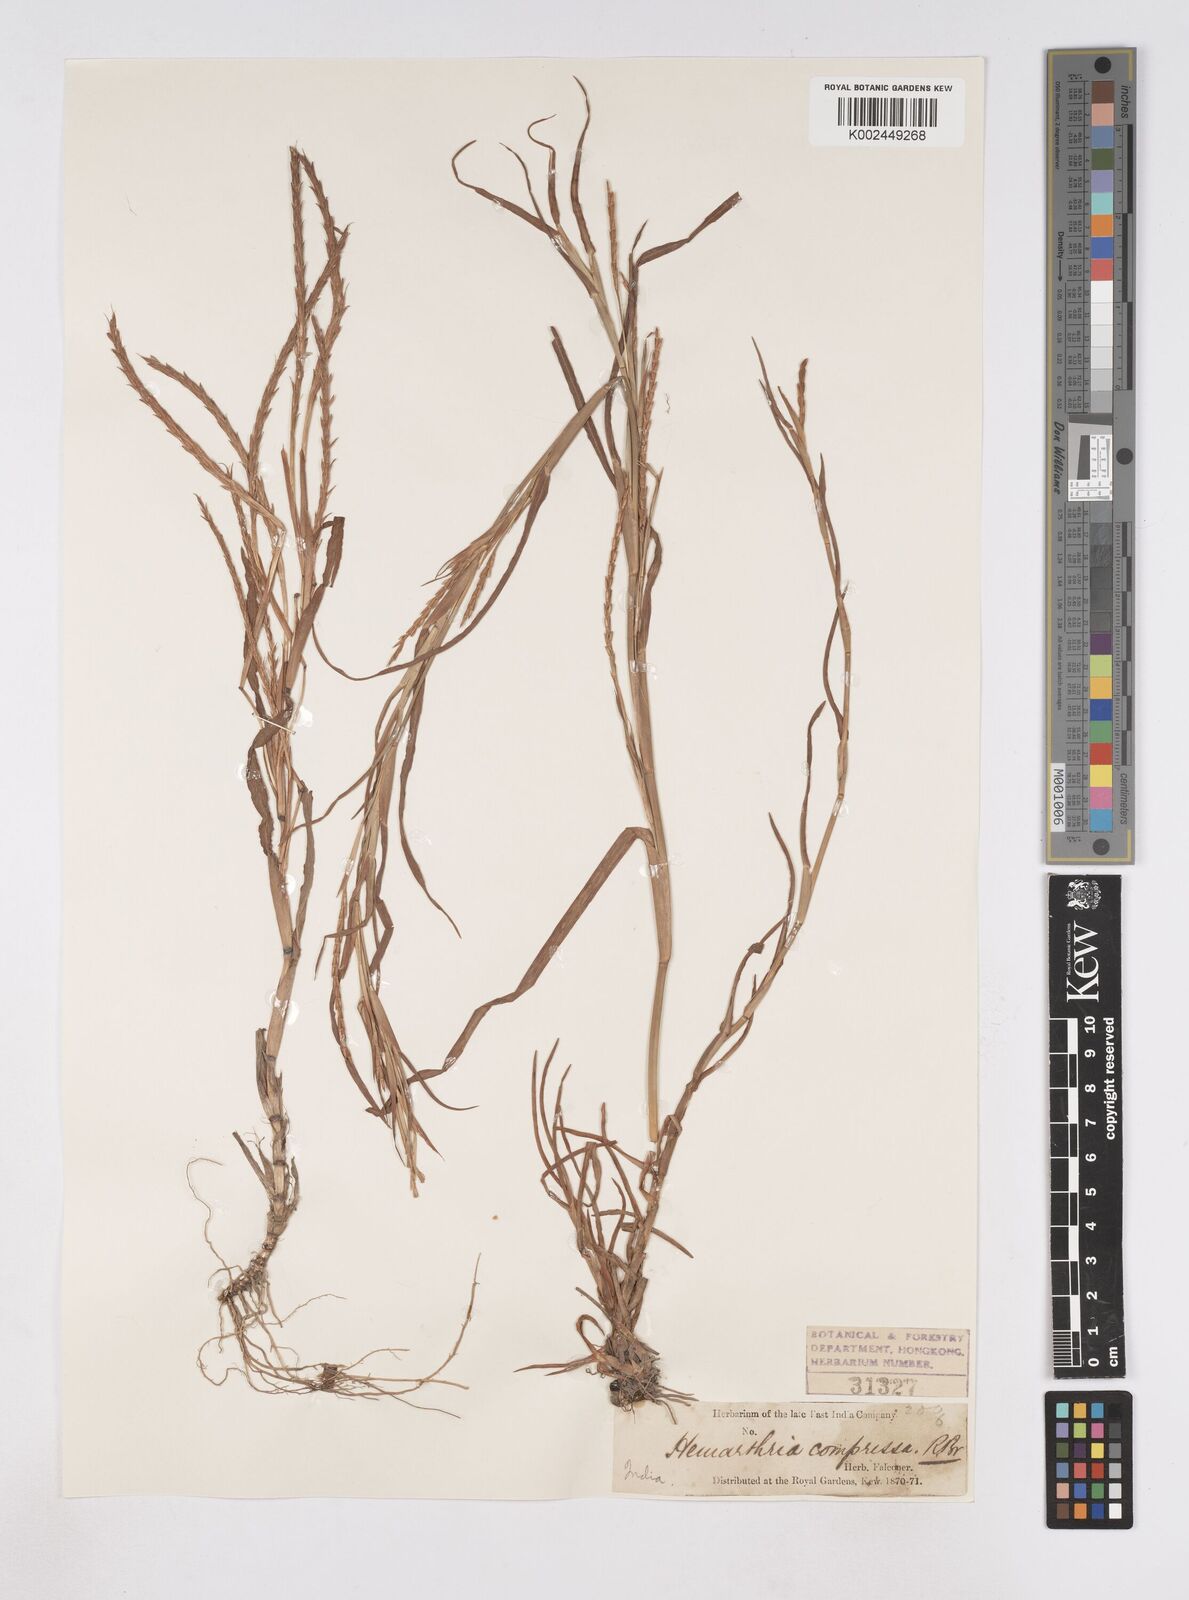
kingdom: Plantae
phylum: Tracheophyta
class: Liliopsida
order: Poales
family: Poaceae
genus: Hemarthria
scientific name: Hemarthria compressa
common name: Whip grass
